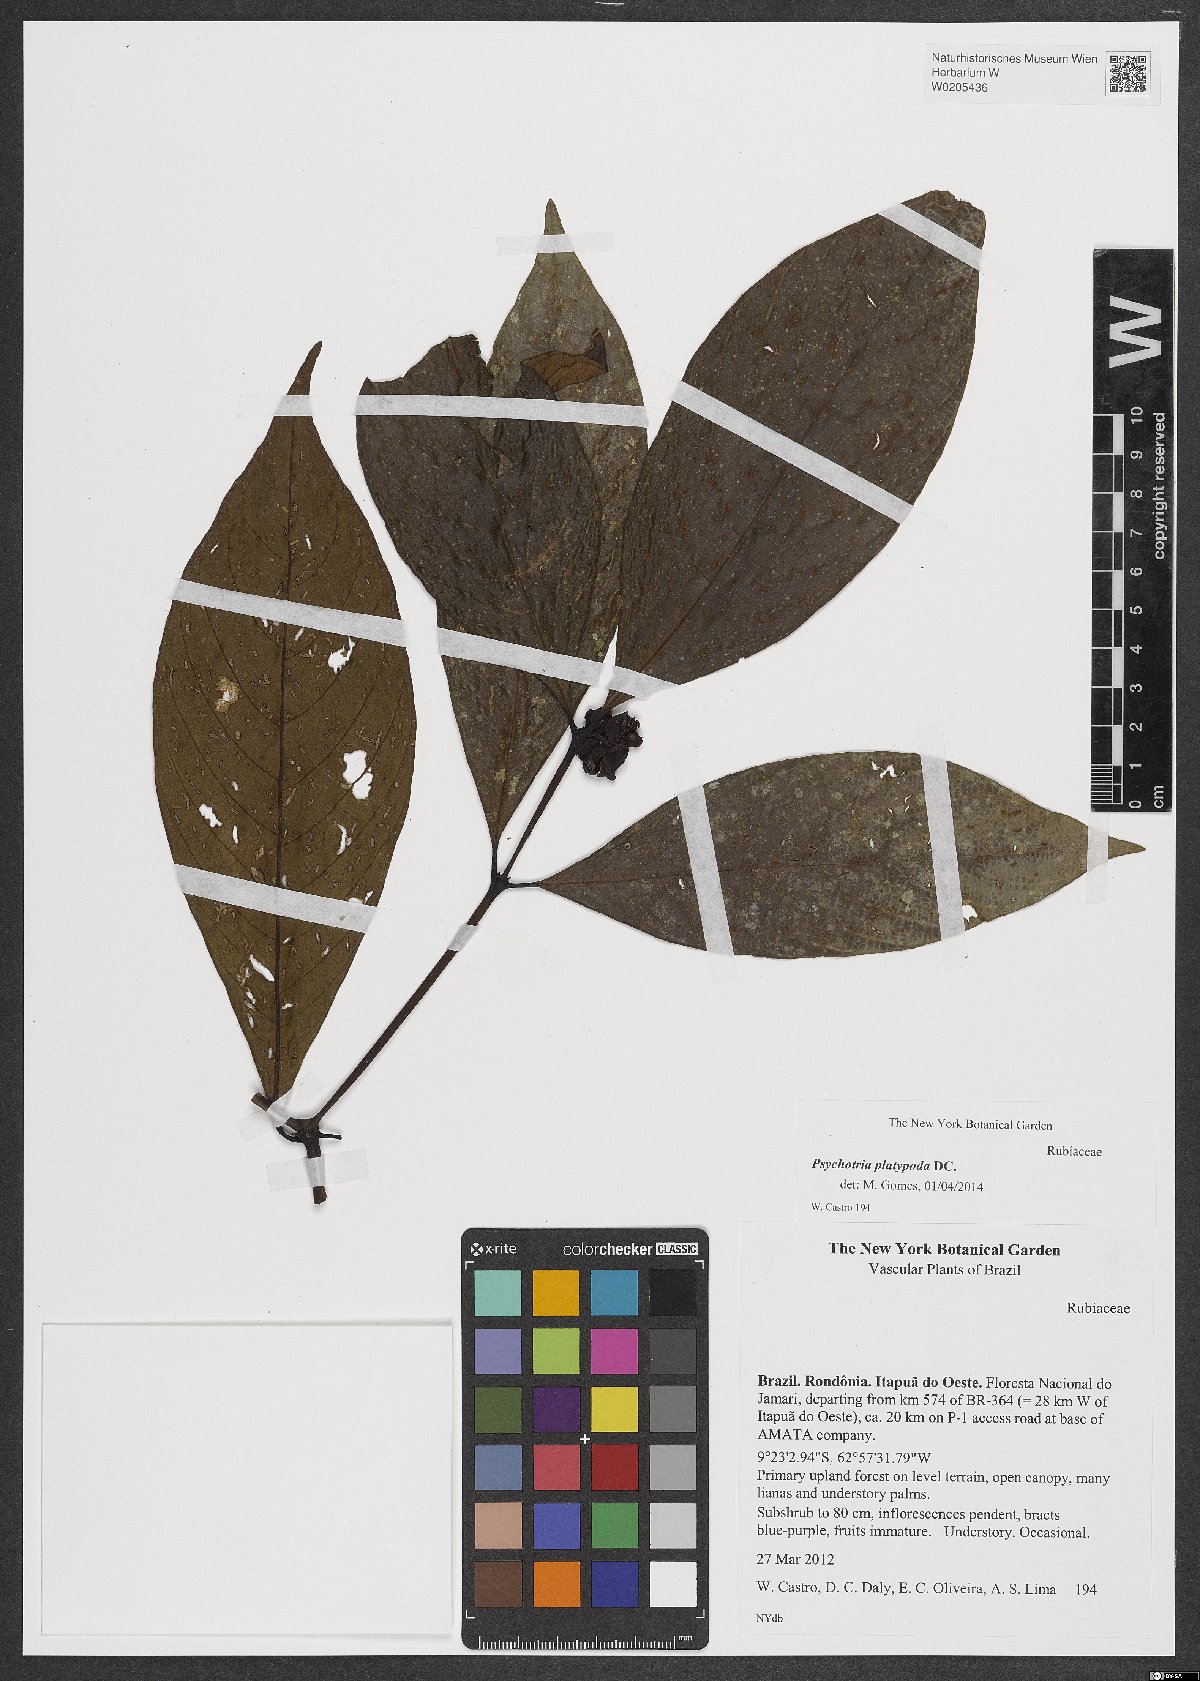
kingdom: Plantae
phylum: Tracheophyta
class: Magnoliopsida
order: Gentianales
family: Rubiaceae
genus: Palicourea
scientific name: Palicourea dichotoma
